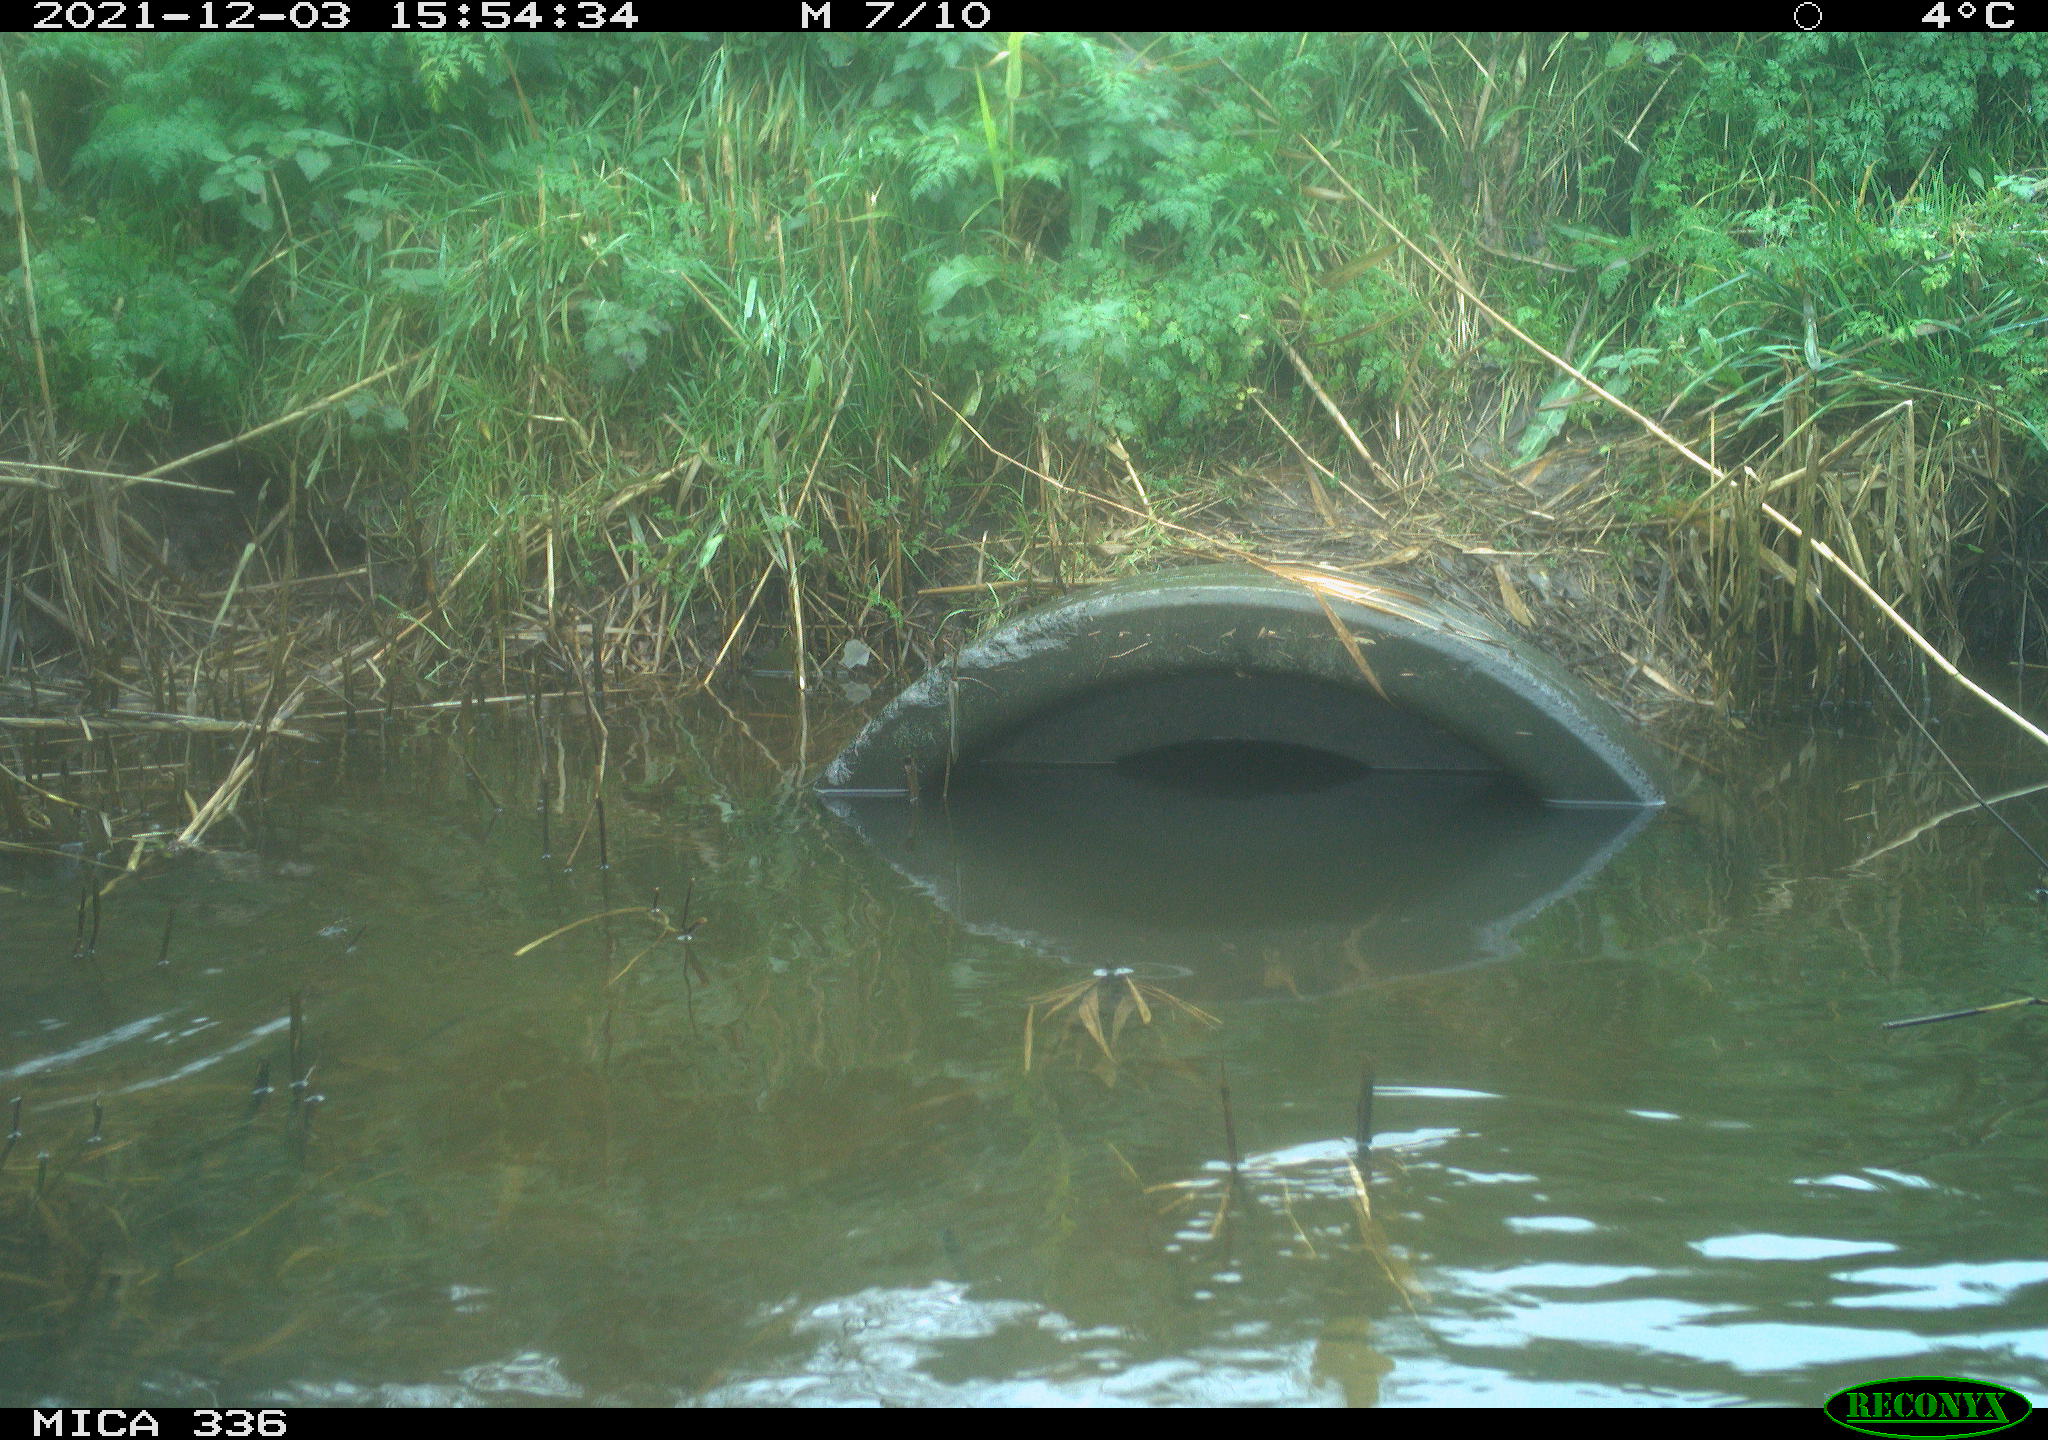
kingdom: Animalia
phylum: Chordata
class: Aves
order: Gruiformes
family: Rallidae
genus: Gallinula
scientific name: Gallinula chloropus
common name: Common moorhen
